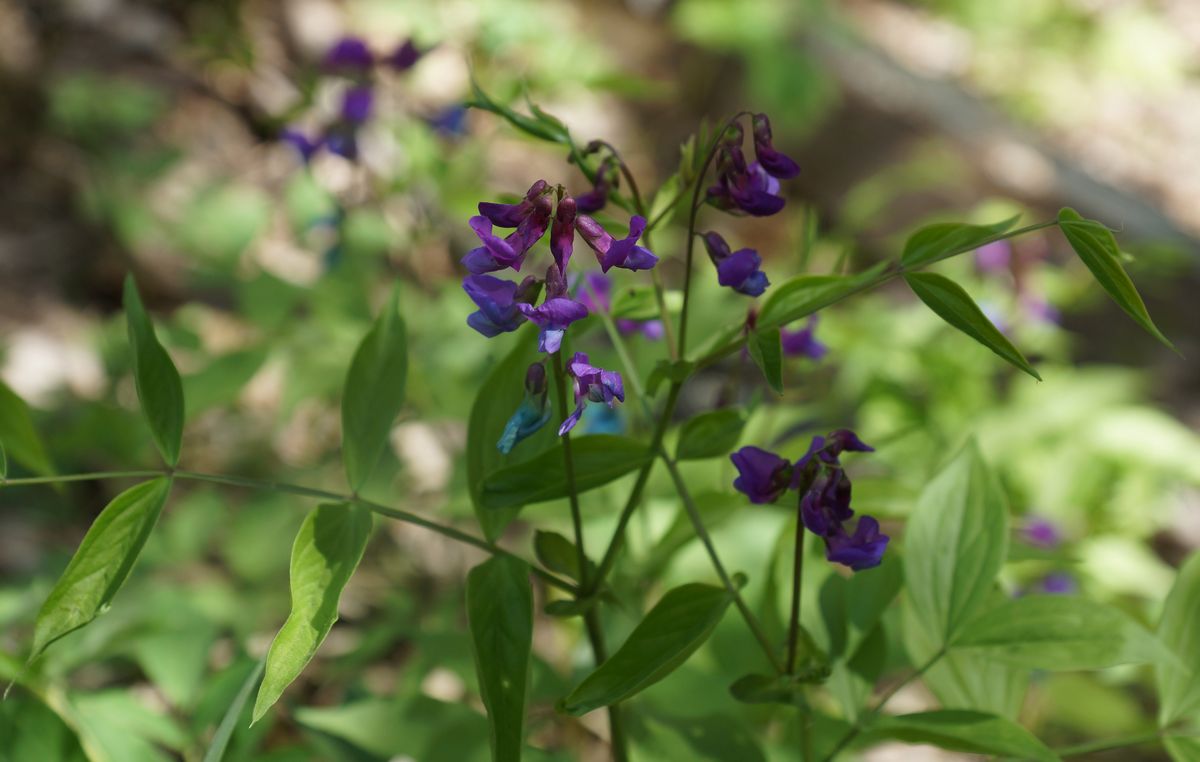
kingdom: Plantae
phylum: Tracheophyta
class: Magnoliopsida
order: Fabales
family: Fabaceae
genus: Lathyrus
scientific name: Lathyrus vernus
